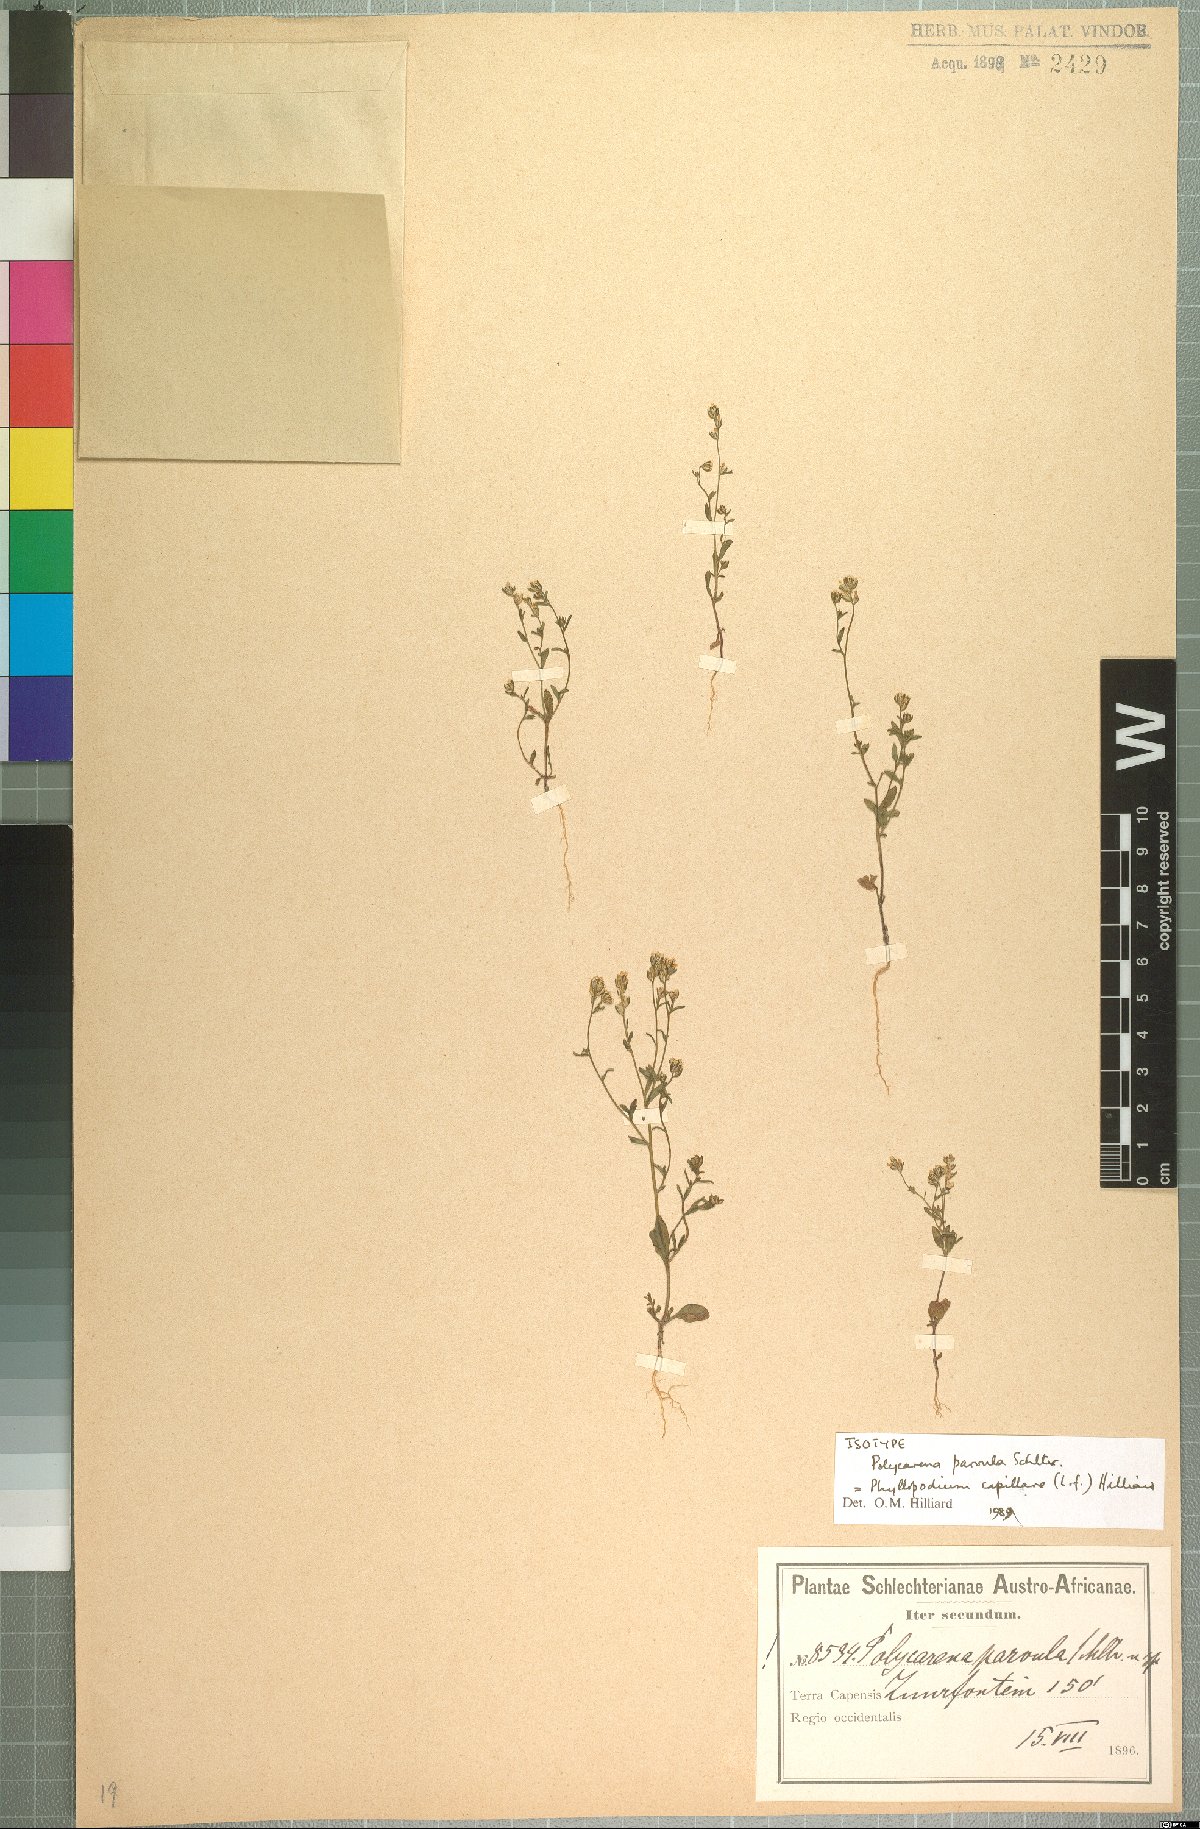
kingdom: Plantae
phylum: Tracheophyta
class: Magnoliopsida
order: Lamiales
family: Scrophulariaceae
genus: Phyllopodium
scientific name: Phyllopodium capillare
